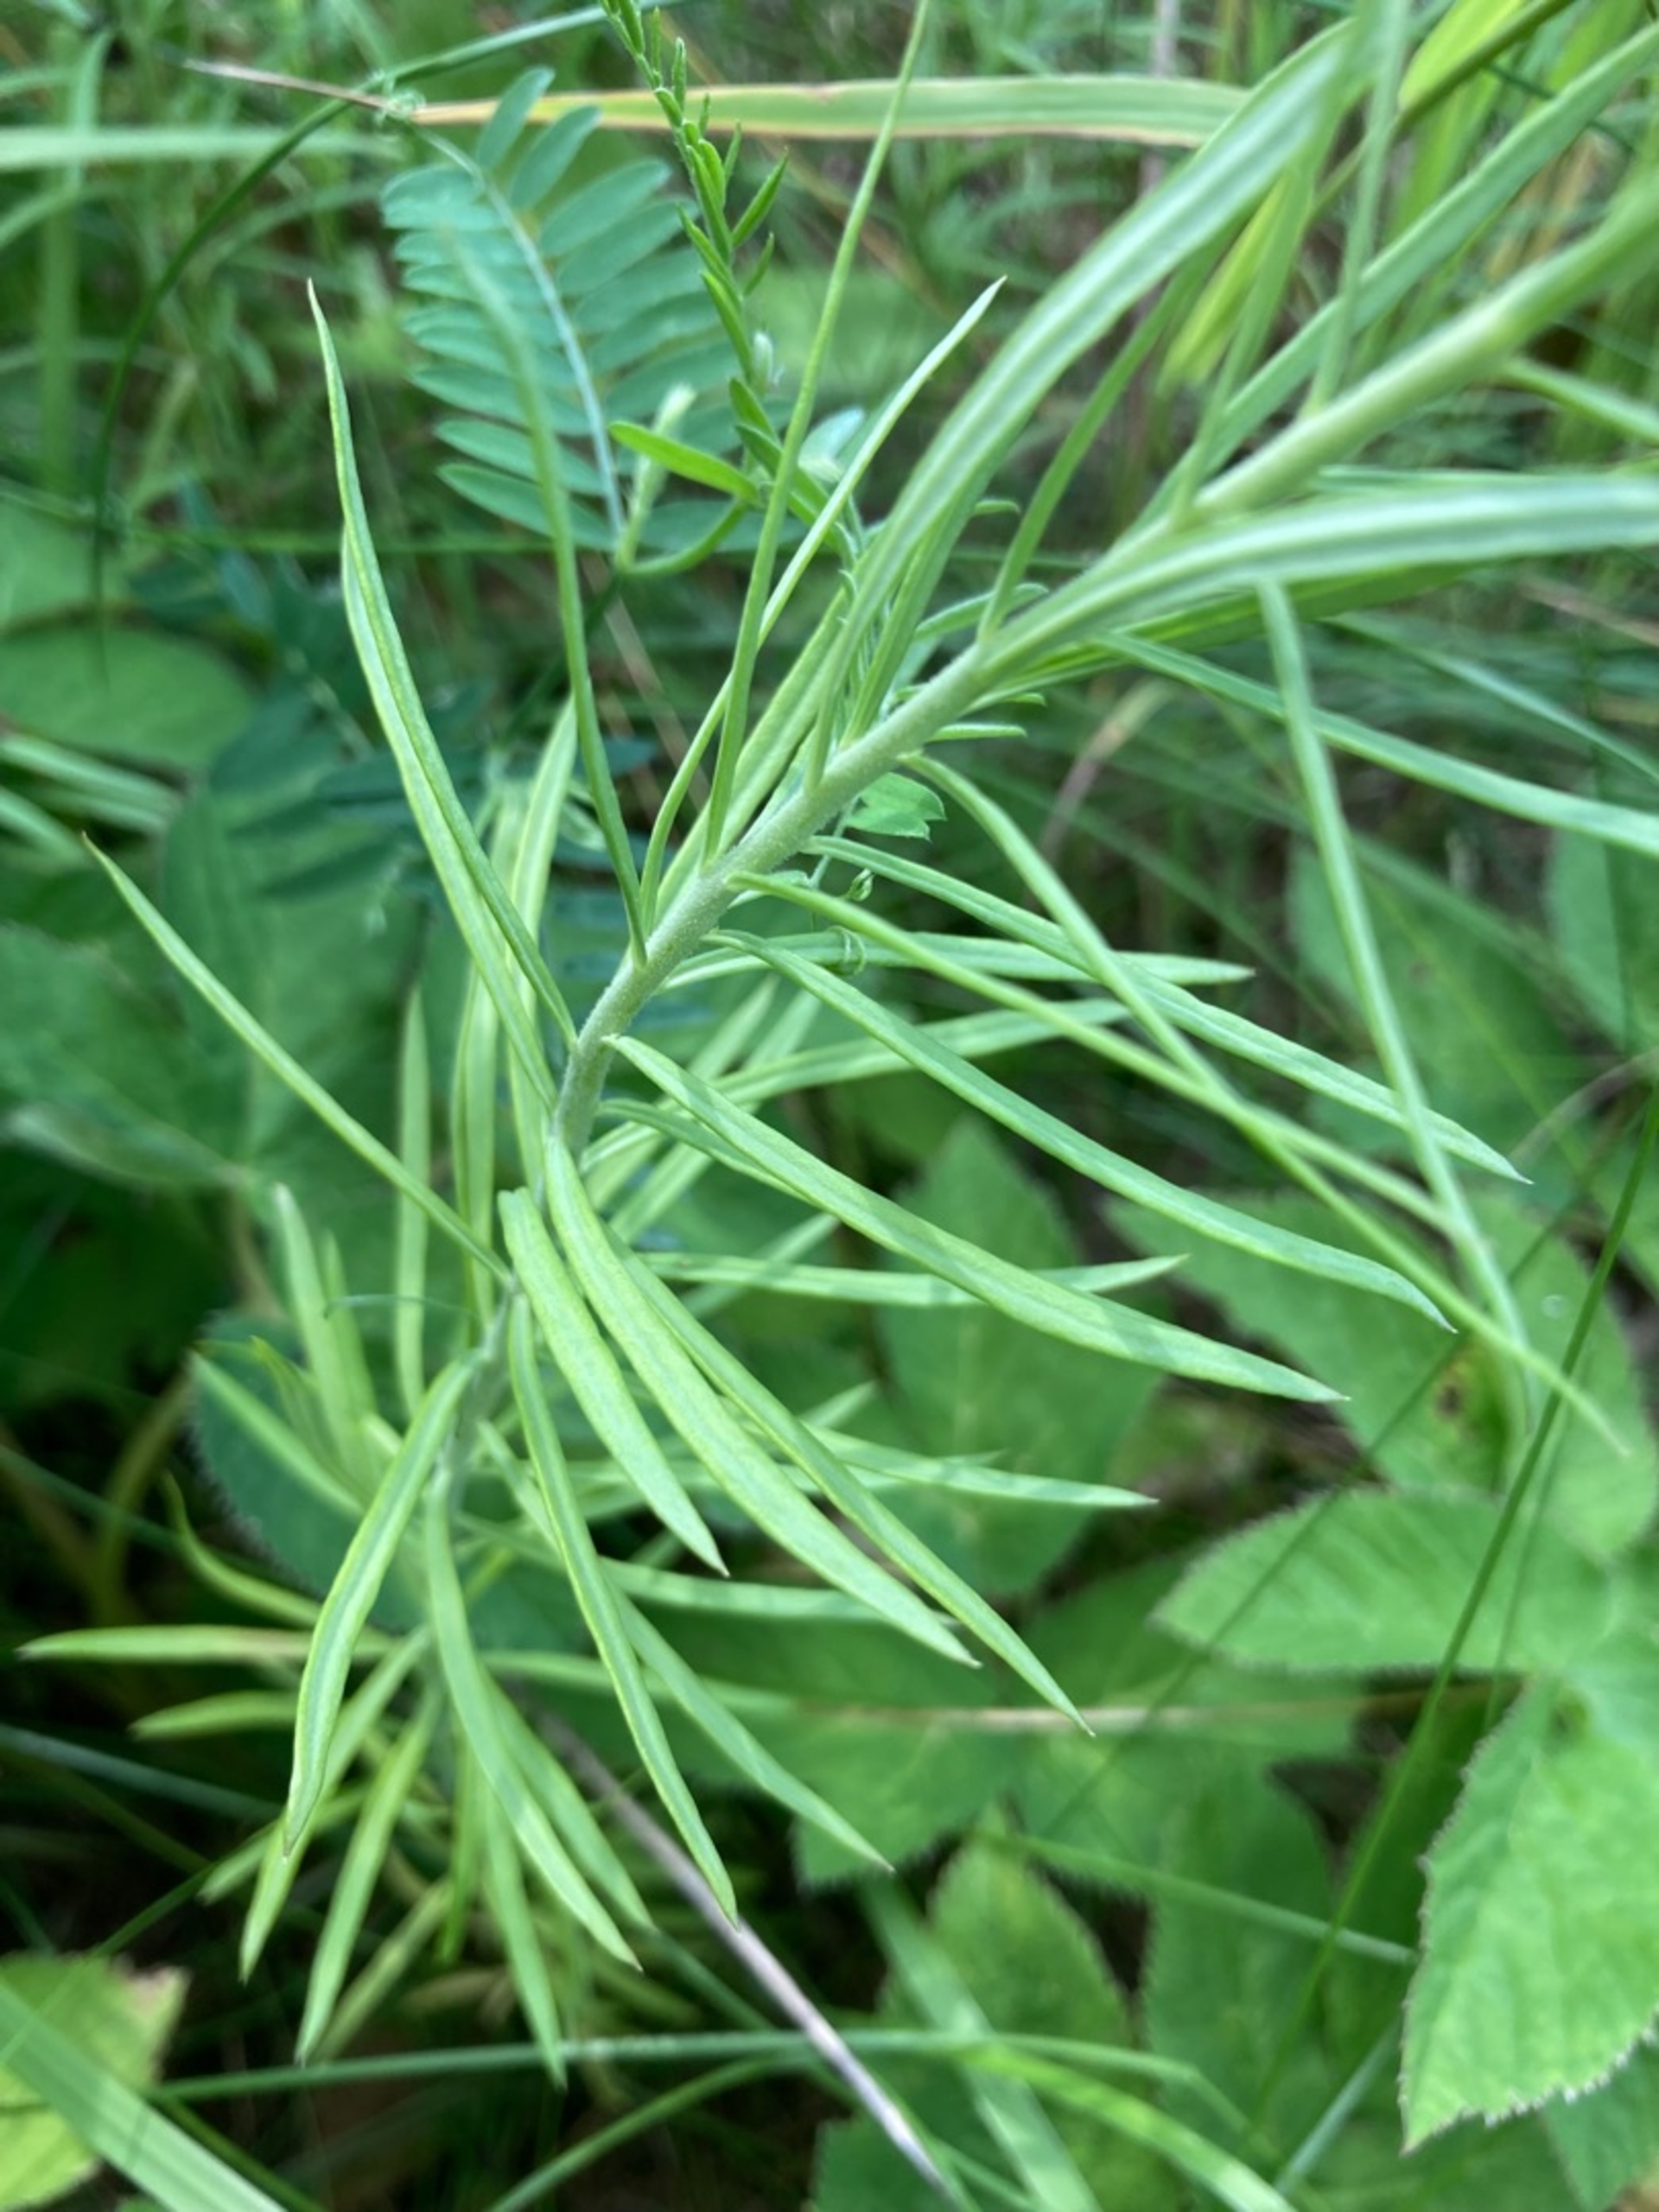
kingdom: Plantae
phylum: Tracheophyta
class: Magnoliopsida
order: Lamiales
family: Plantaginaceae
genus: Linaria
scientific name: Linaria vulgaris
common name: Almindelig torskemund
